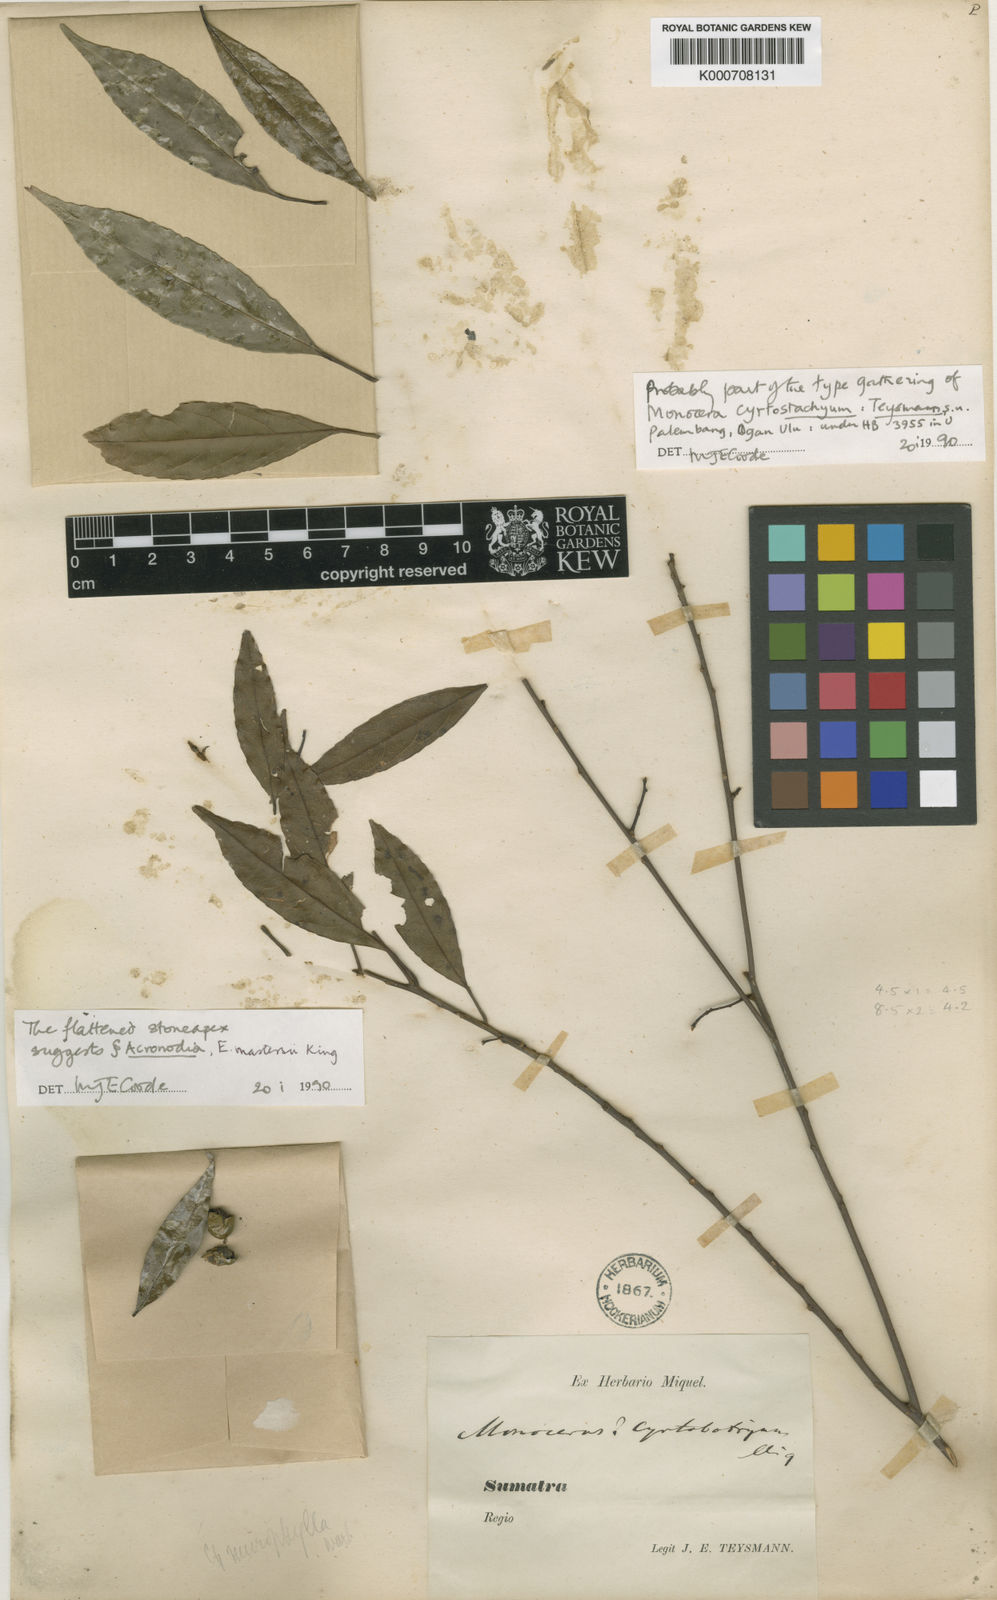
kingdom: Plantae
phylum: Tracheophyta
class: Magnoliopsida
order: Oxalidales
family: Elaeocarpaceae
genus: Elaeocarpus
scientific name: Elaeocarpus mastersii
